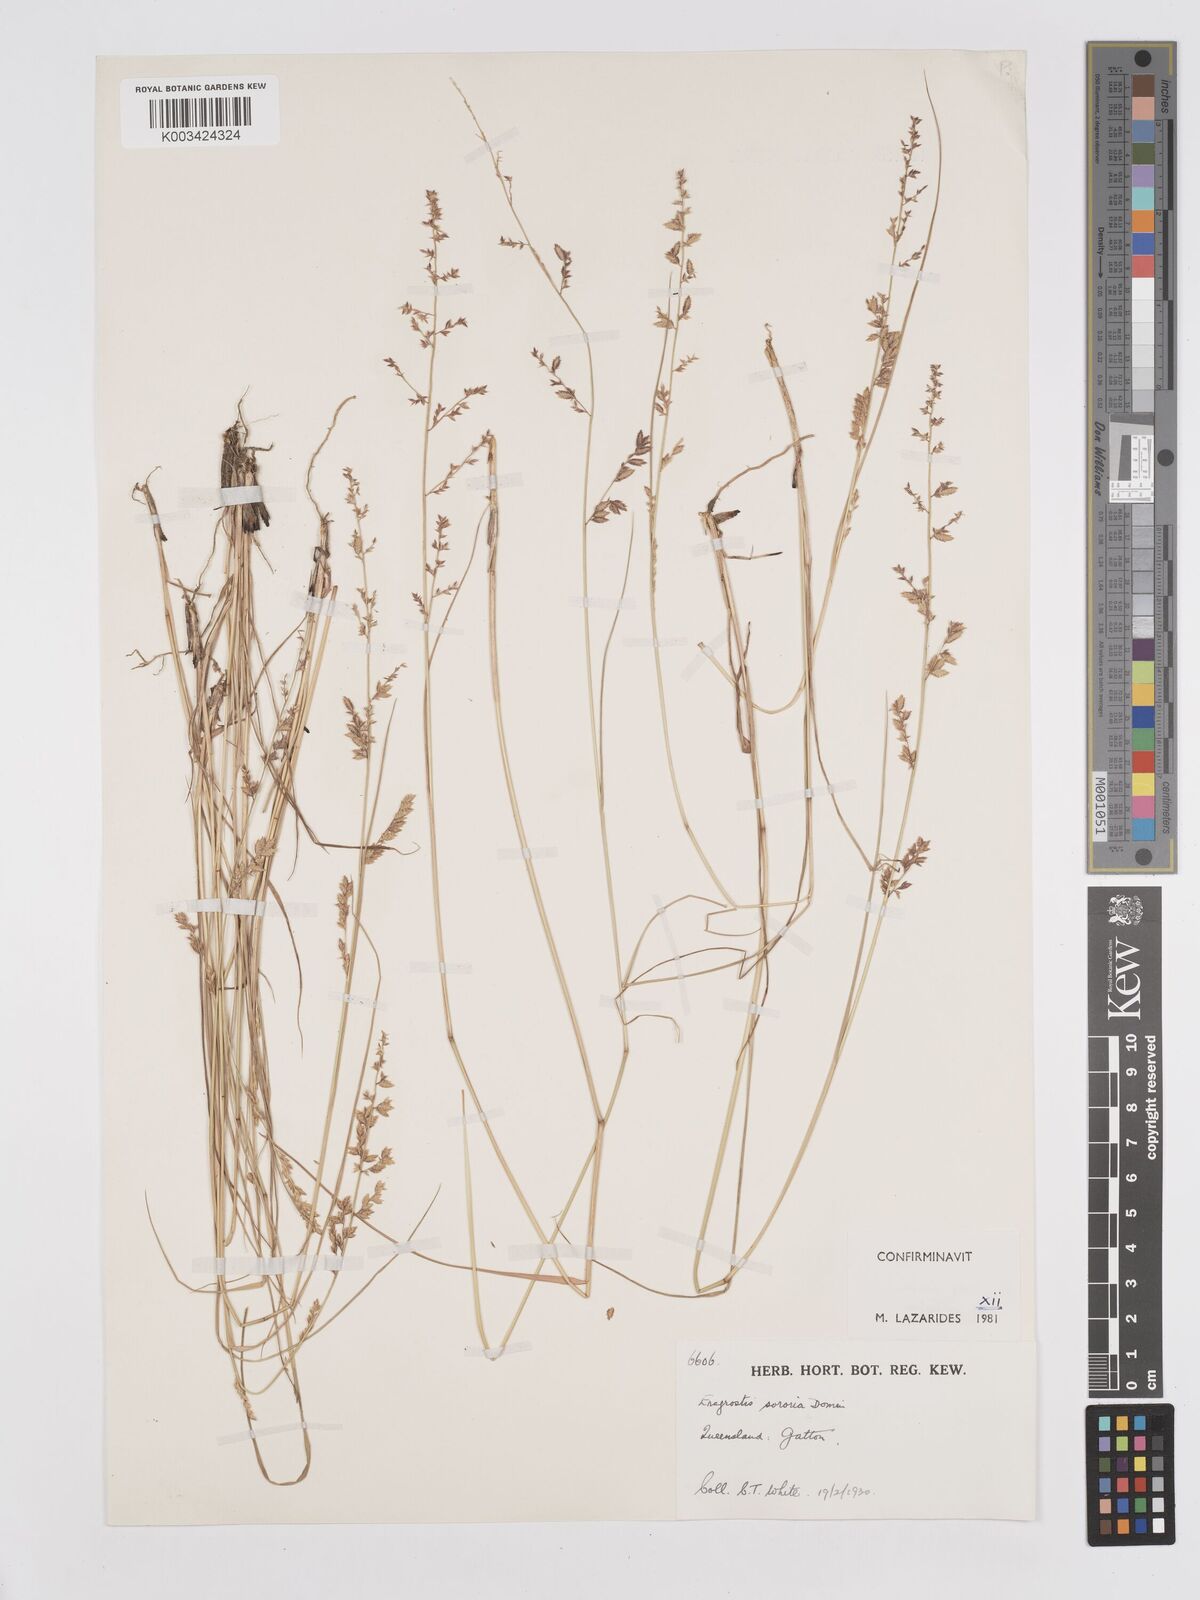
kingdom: Plantae
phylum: Tracheophyta
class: Liliopsida
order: Poales
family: Poaceae
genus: Eragrostis
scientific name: Eragrostis sororia
